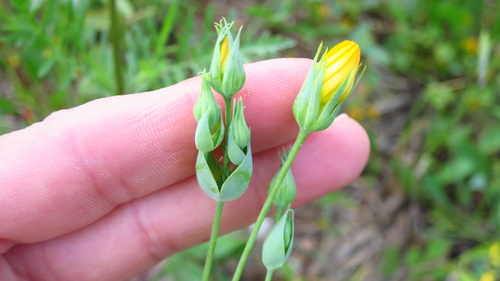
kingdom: Plantae
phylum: Tracheophyta
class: Magnoliopsida
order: Gentianales
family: Gentianaceae
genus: Blackstonia
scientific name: Blackstonia perfoliata
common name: Yellow-wort
